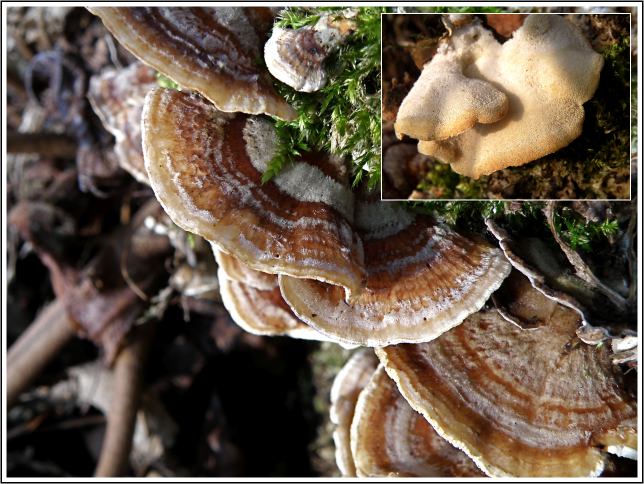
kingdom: Fungi
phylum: Basidiomycota
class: Agaricomycetes
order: Russulales
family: Stereaceae
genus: Stereum
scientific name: Stereum subtomentosum
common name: smuk lædersvamp
